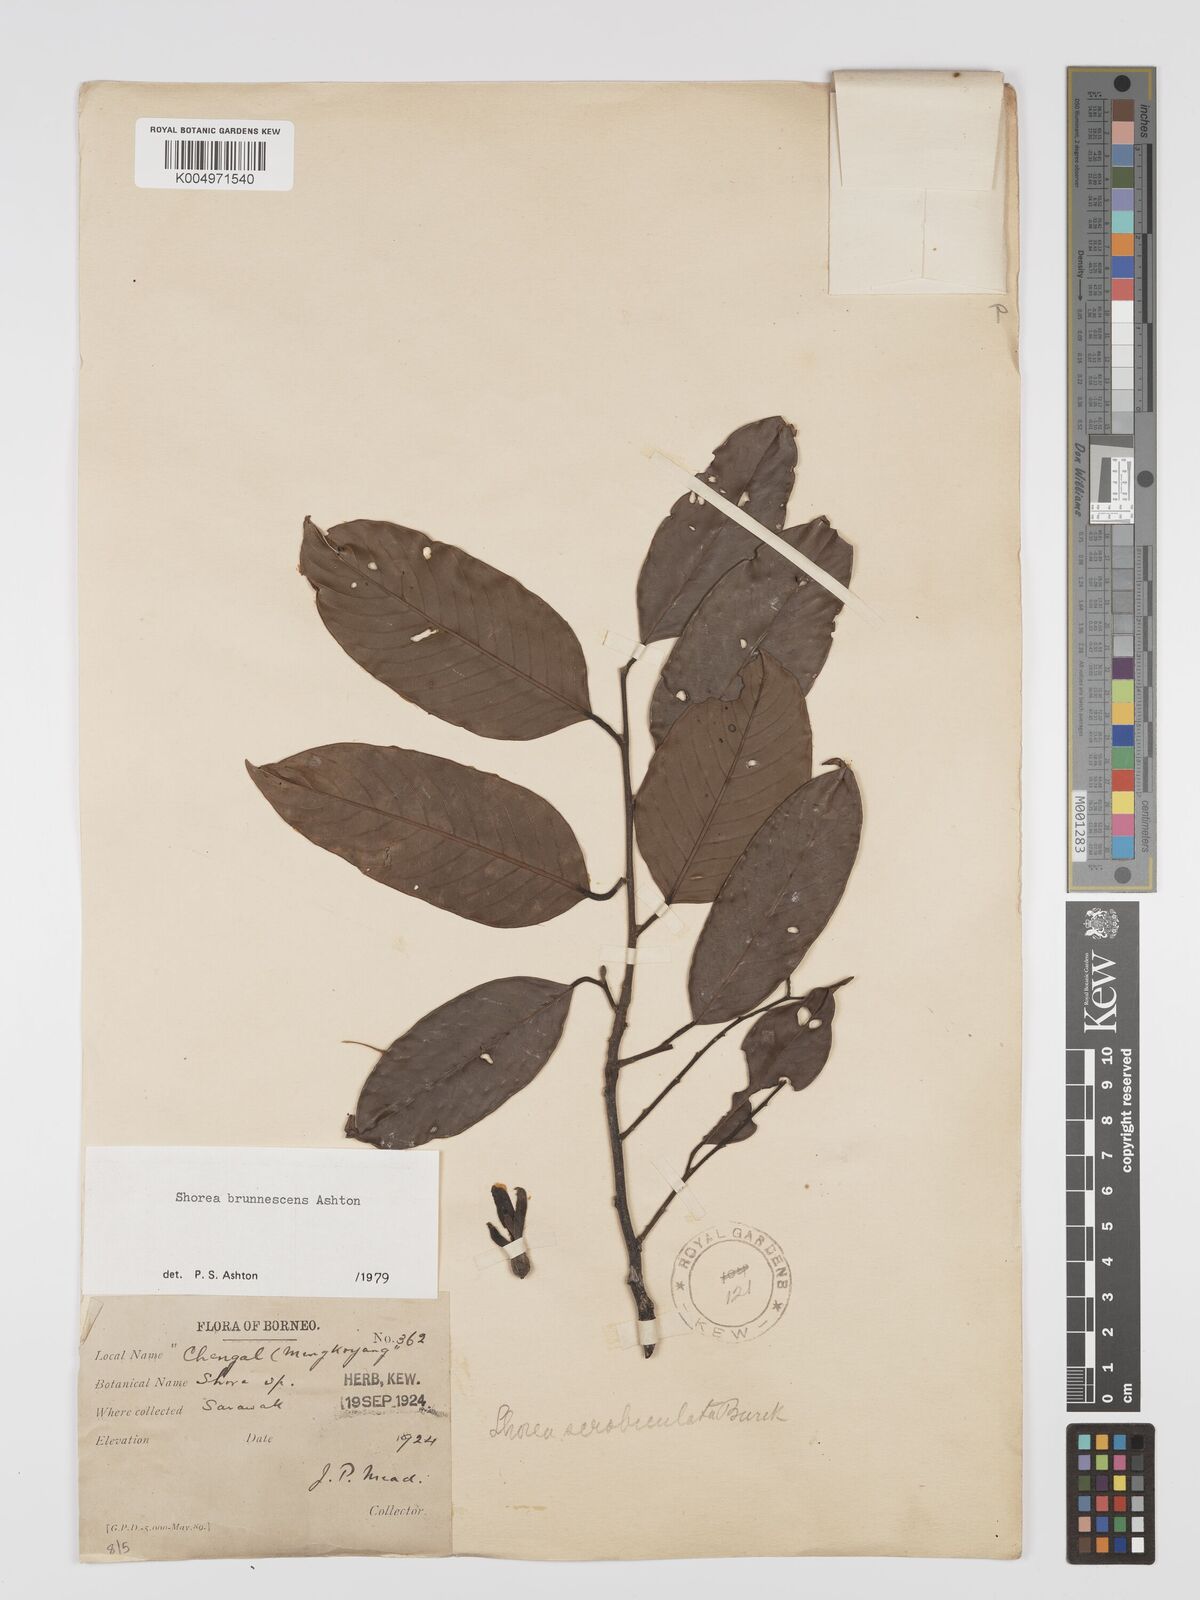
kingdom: Plantae
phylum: Tracheophyta
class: Magnoliopsida
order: Malvales
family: Dipterocarpaceae
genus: Shorea
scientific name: Shorea brunnescens
